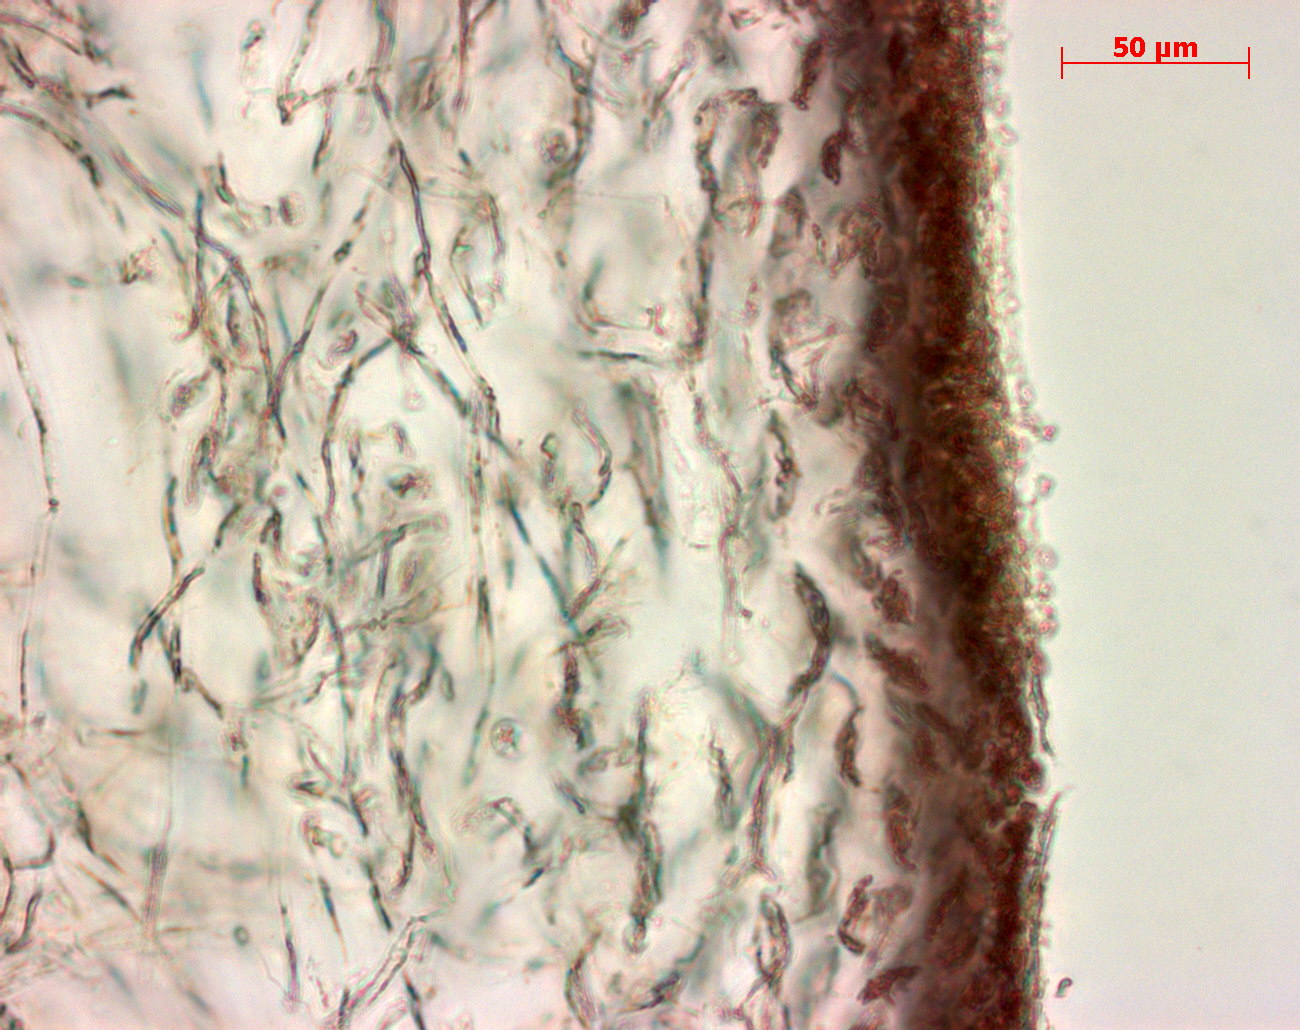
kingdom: Plantae
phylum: Rhodophyta
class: Florideophyceae
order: Gigartinales
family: Kallymeniaceae
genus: Psaromenia
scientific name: Psaromenia berggrenii
